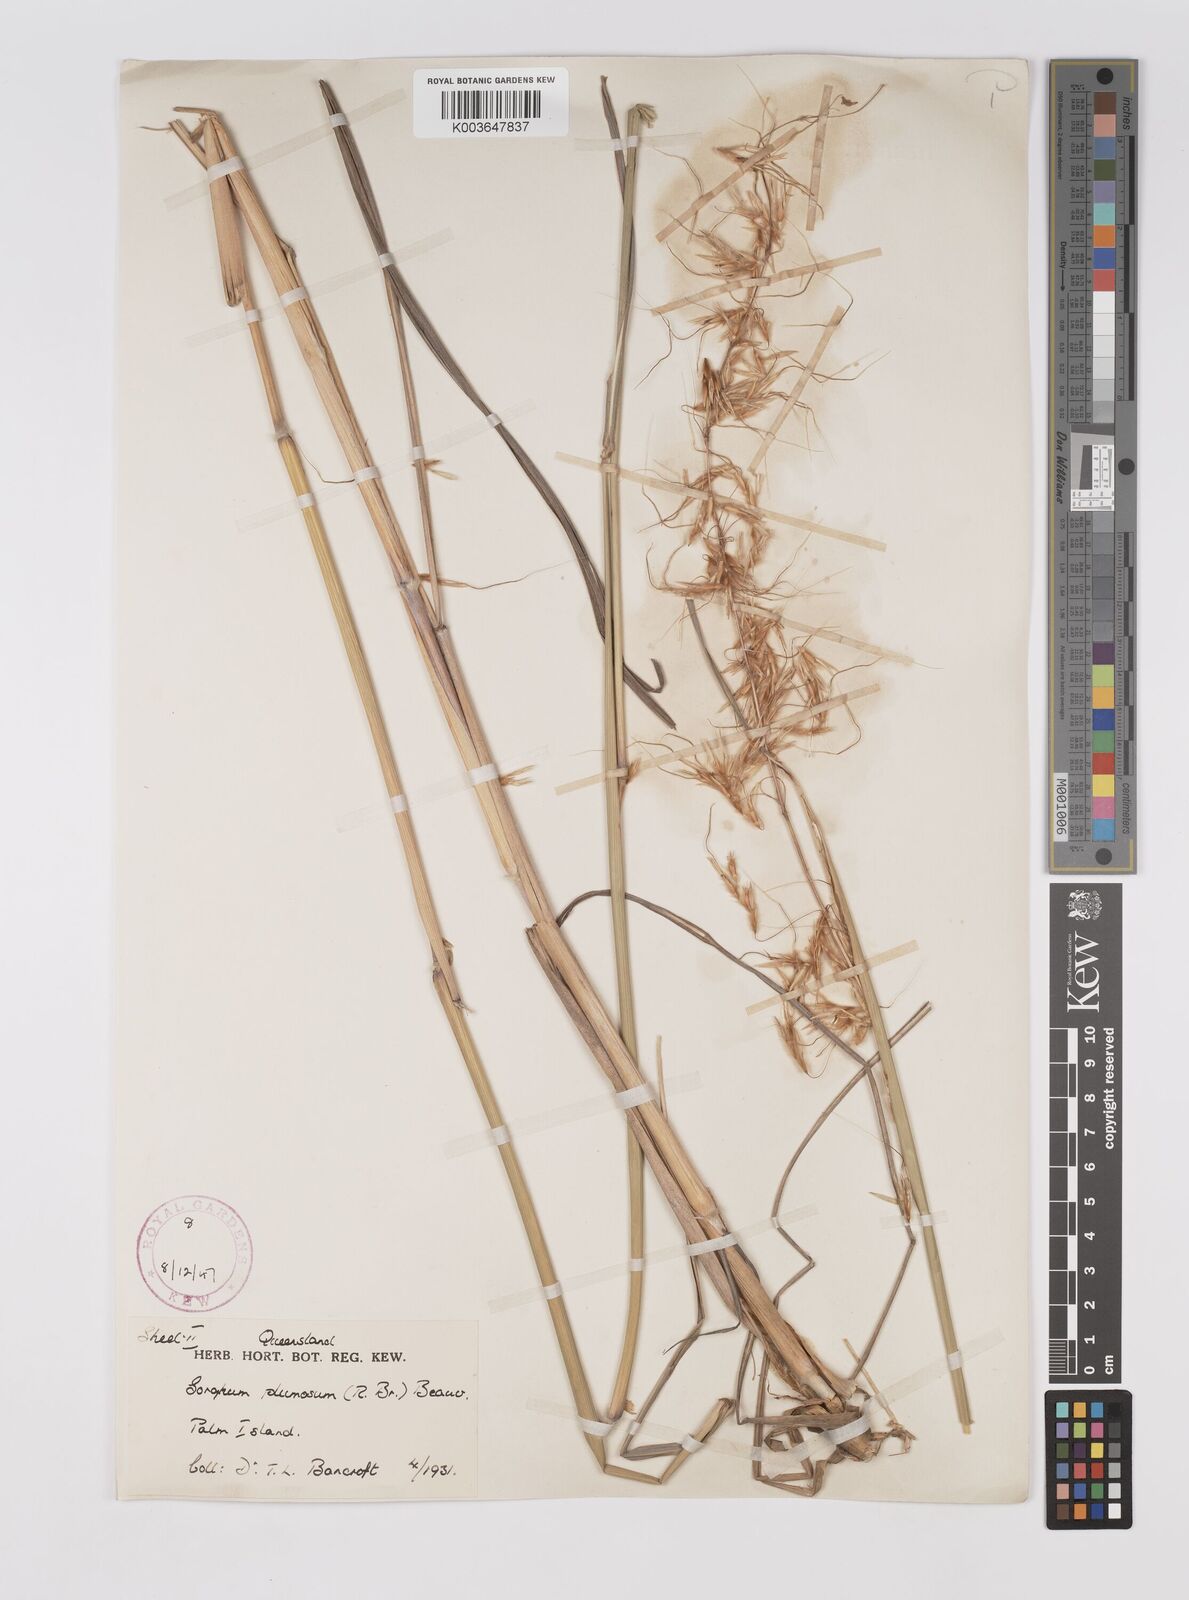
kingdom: Plantae
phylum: Tracheophyta
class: Liliopsida
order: Poales
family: Poaceae
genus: Sarga
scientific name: Sarga plumosa
